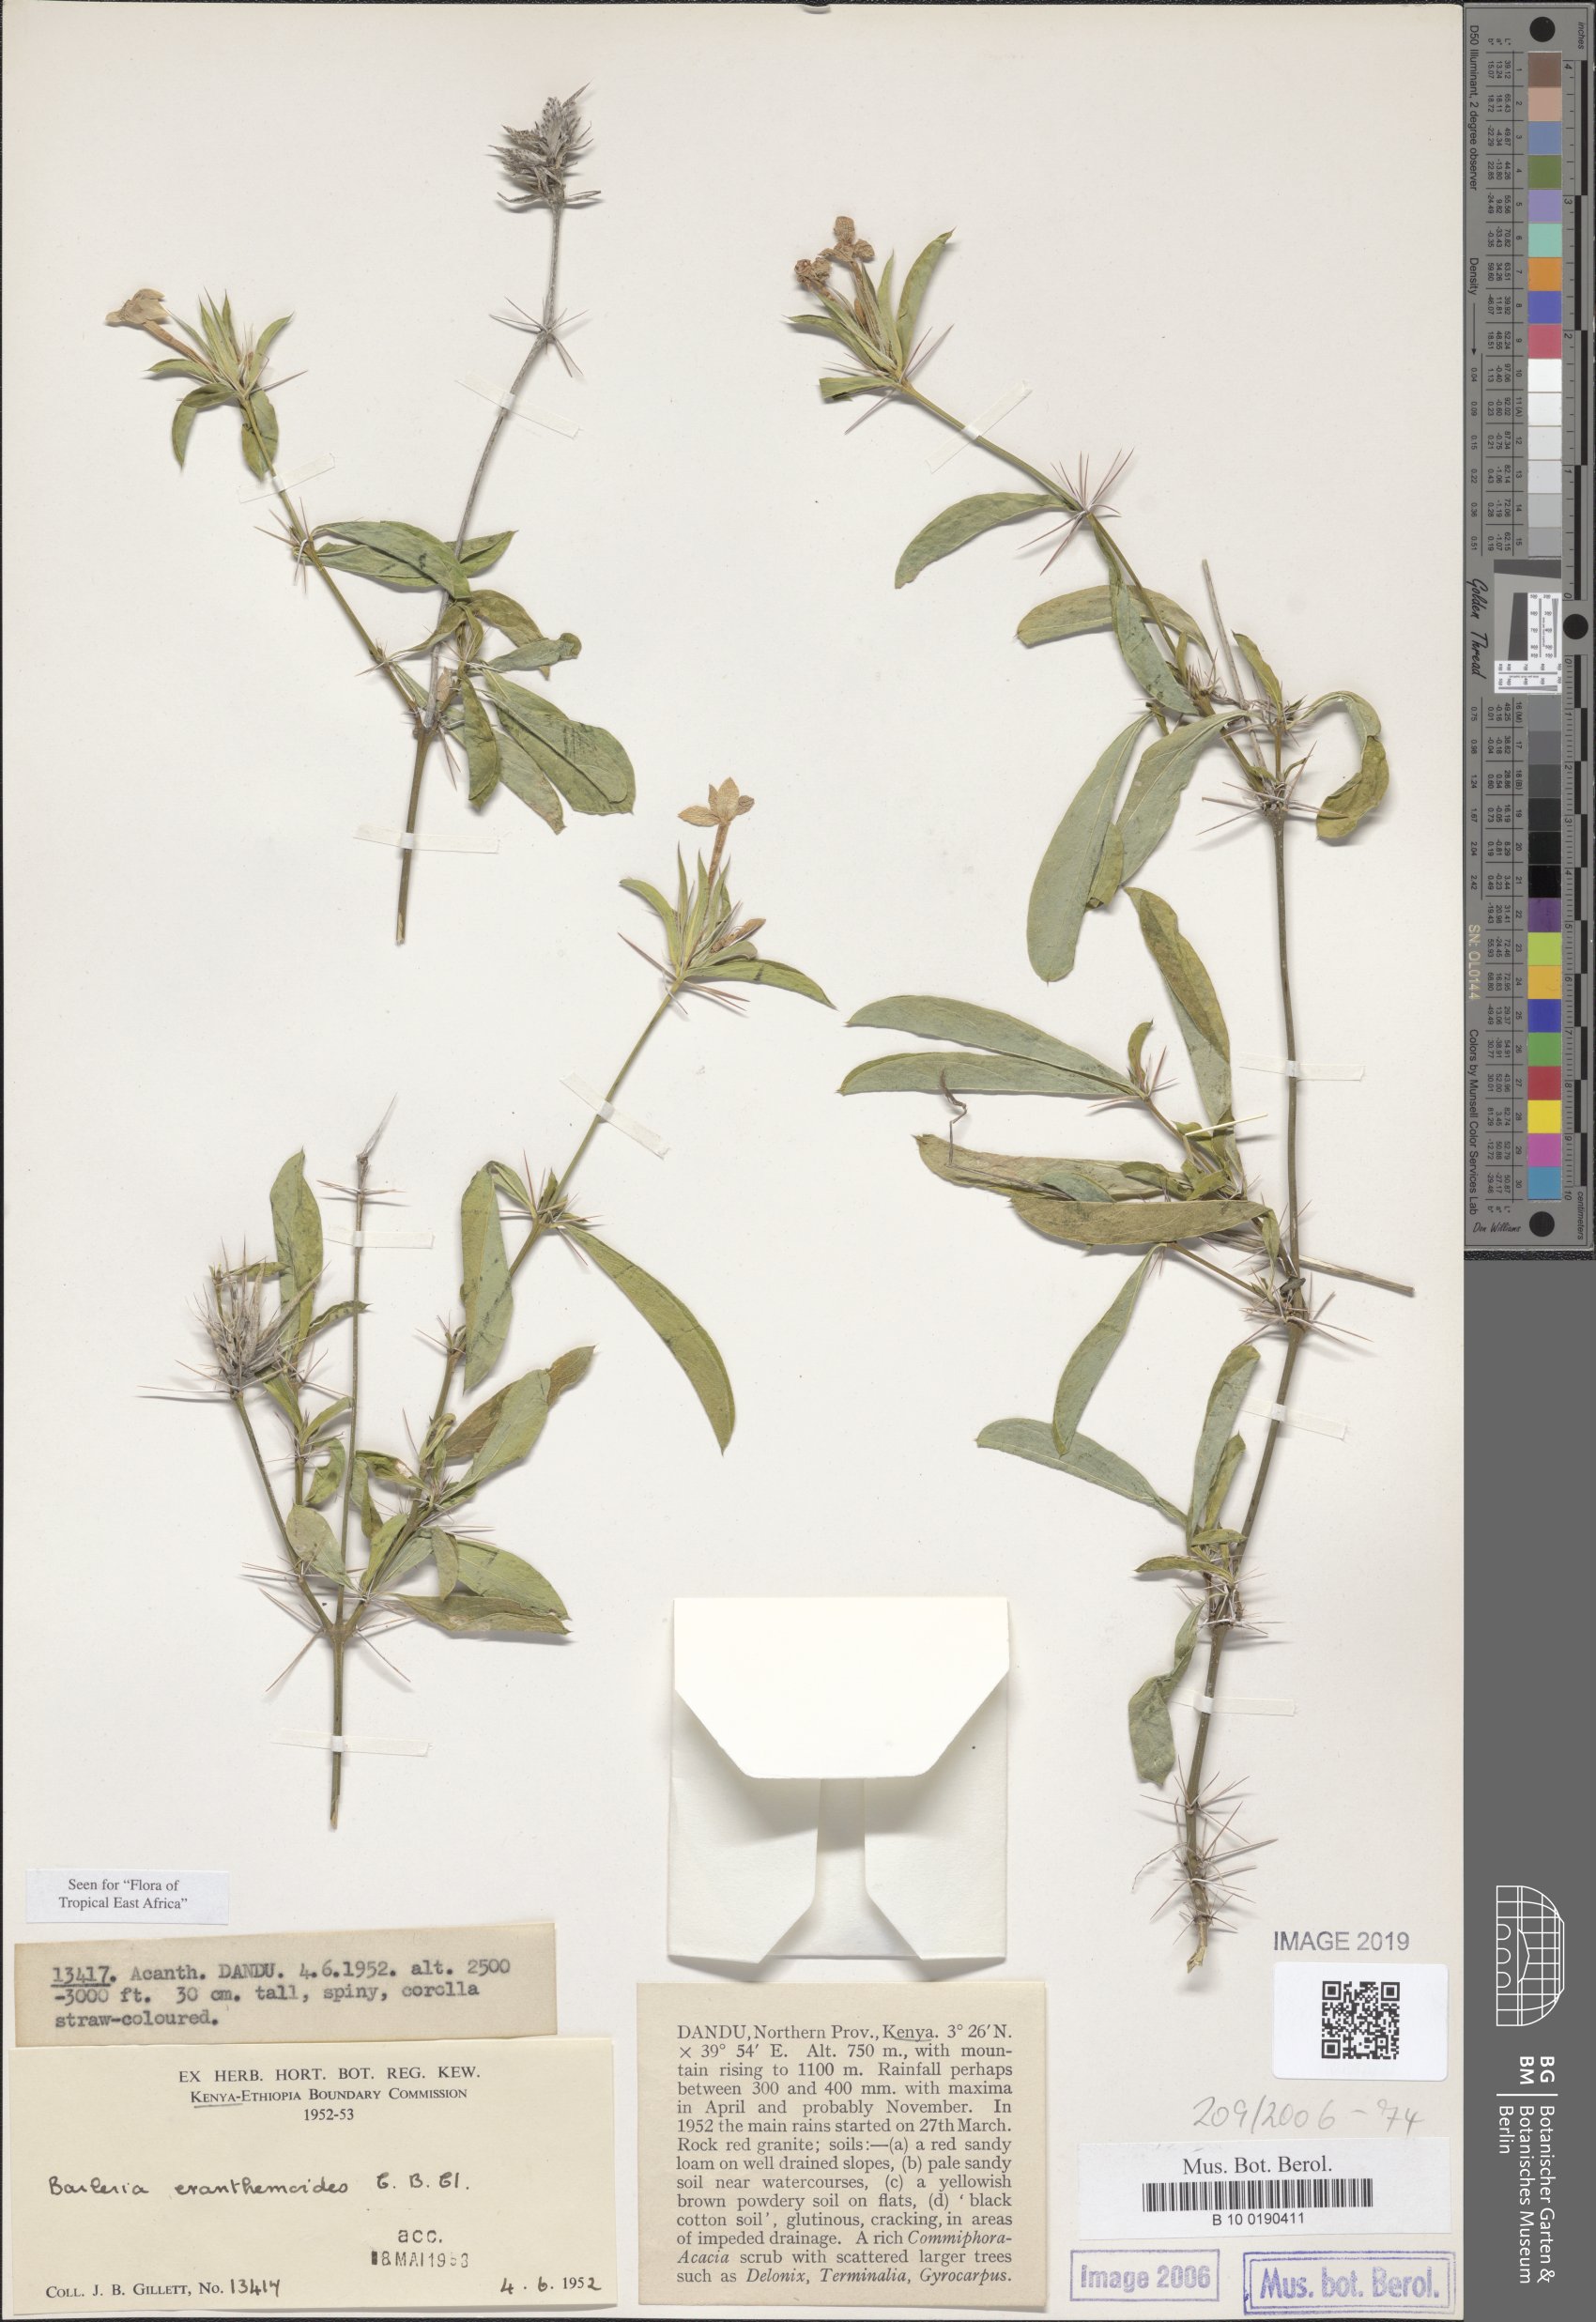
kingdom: Plantae
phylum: Tracheophyta
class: Magnoliopsida
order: Lamiales
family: Acanthaceae
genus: Barleria
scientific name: Barleria eranthemoides
